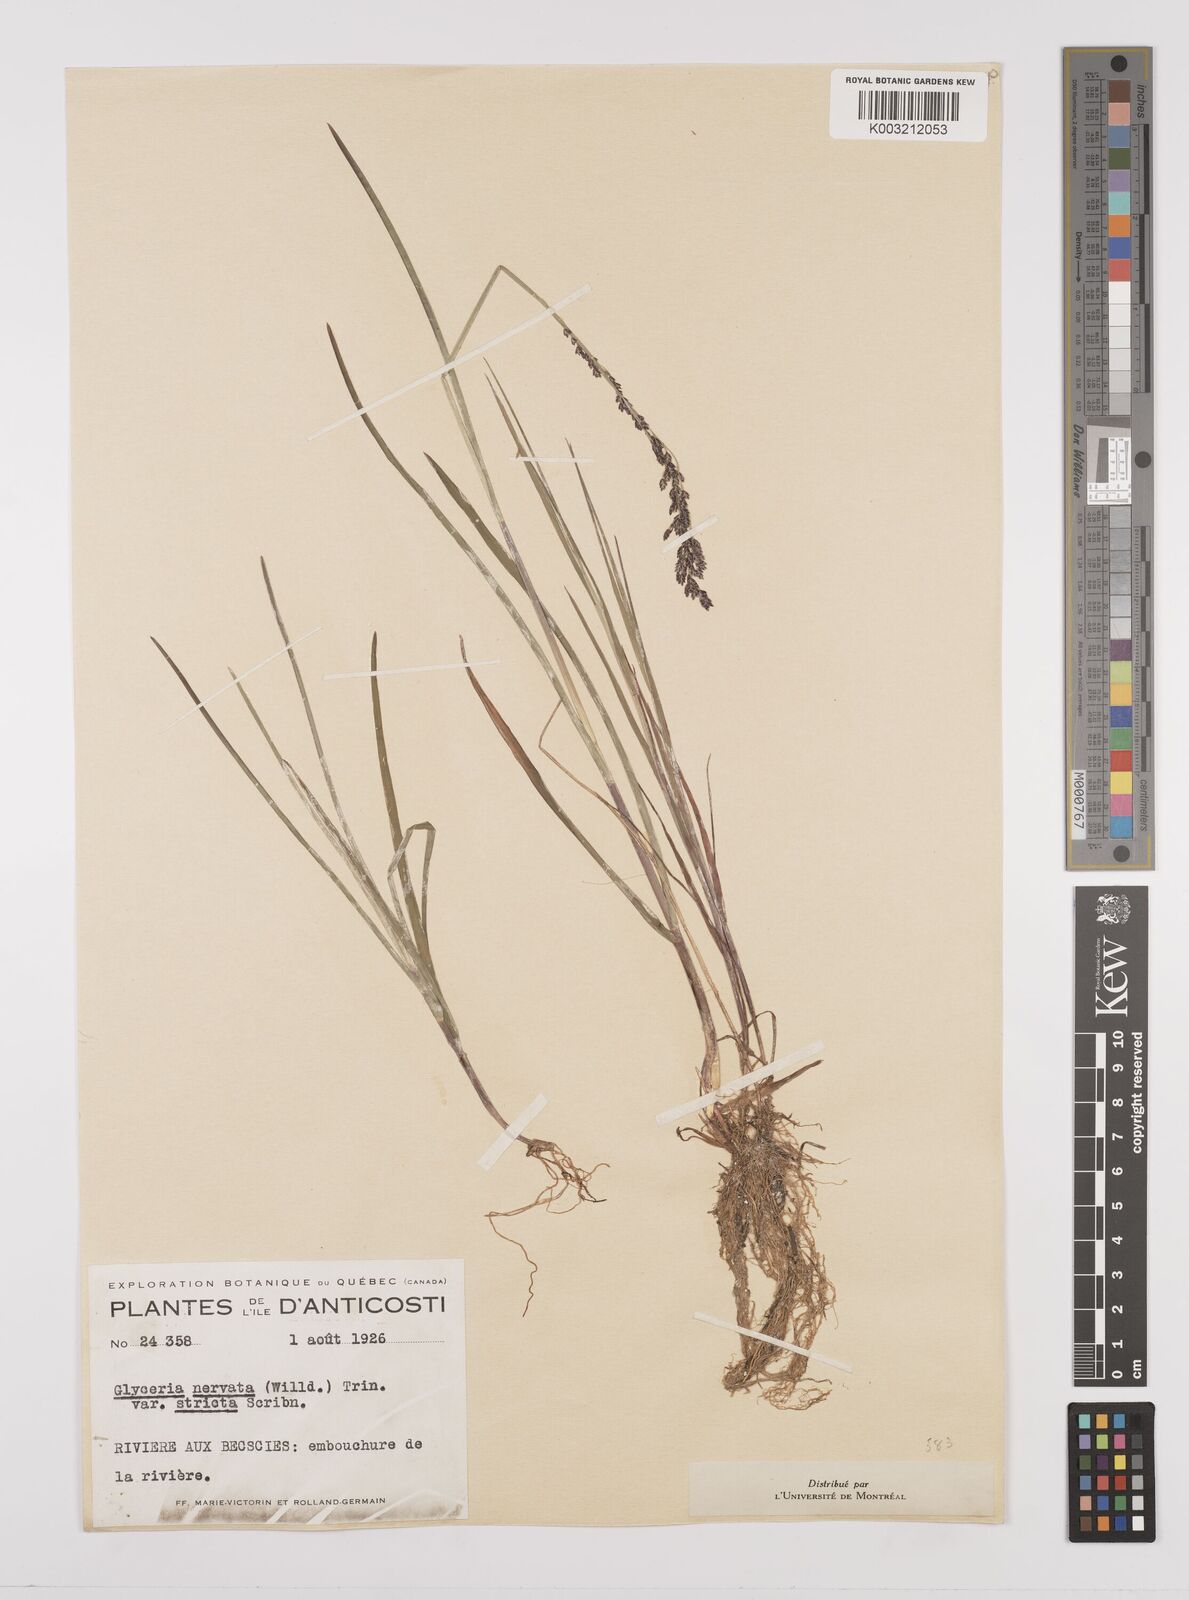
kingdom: Plantae
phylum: Tracheophyta
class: Liliopsida
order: Poales
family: Poaceae
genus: Glyceria
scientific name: Glyceria striata
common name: Fowl manna grass
